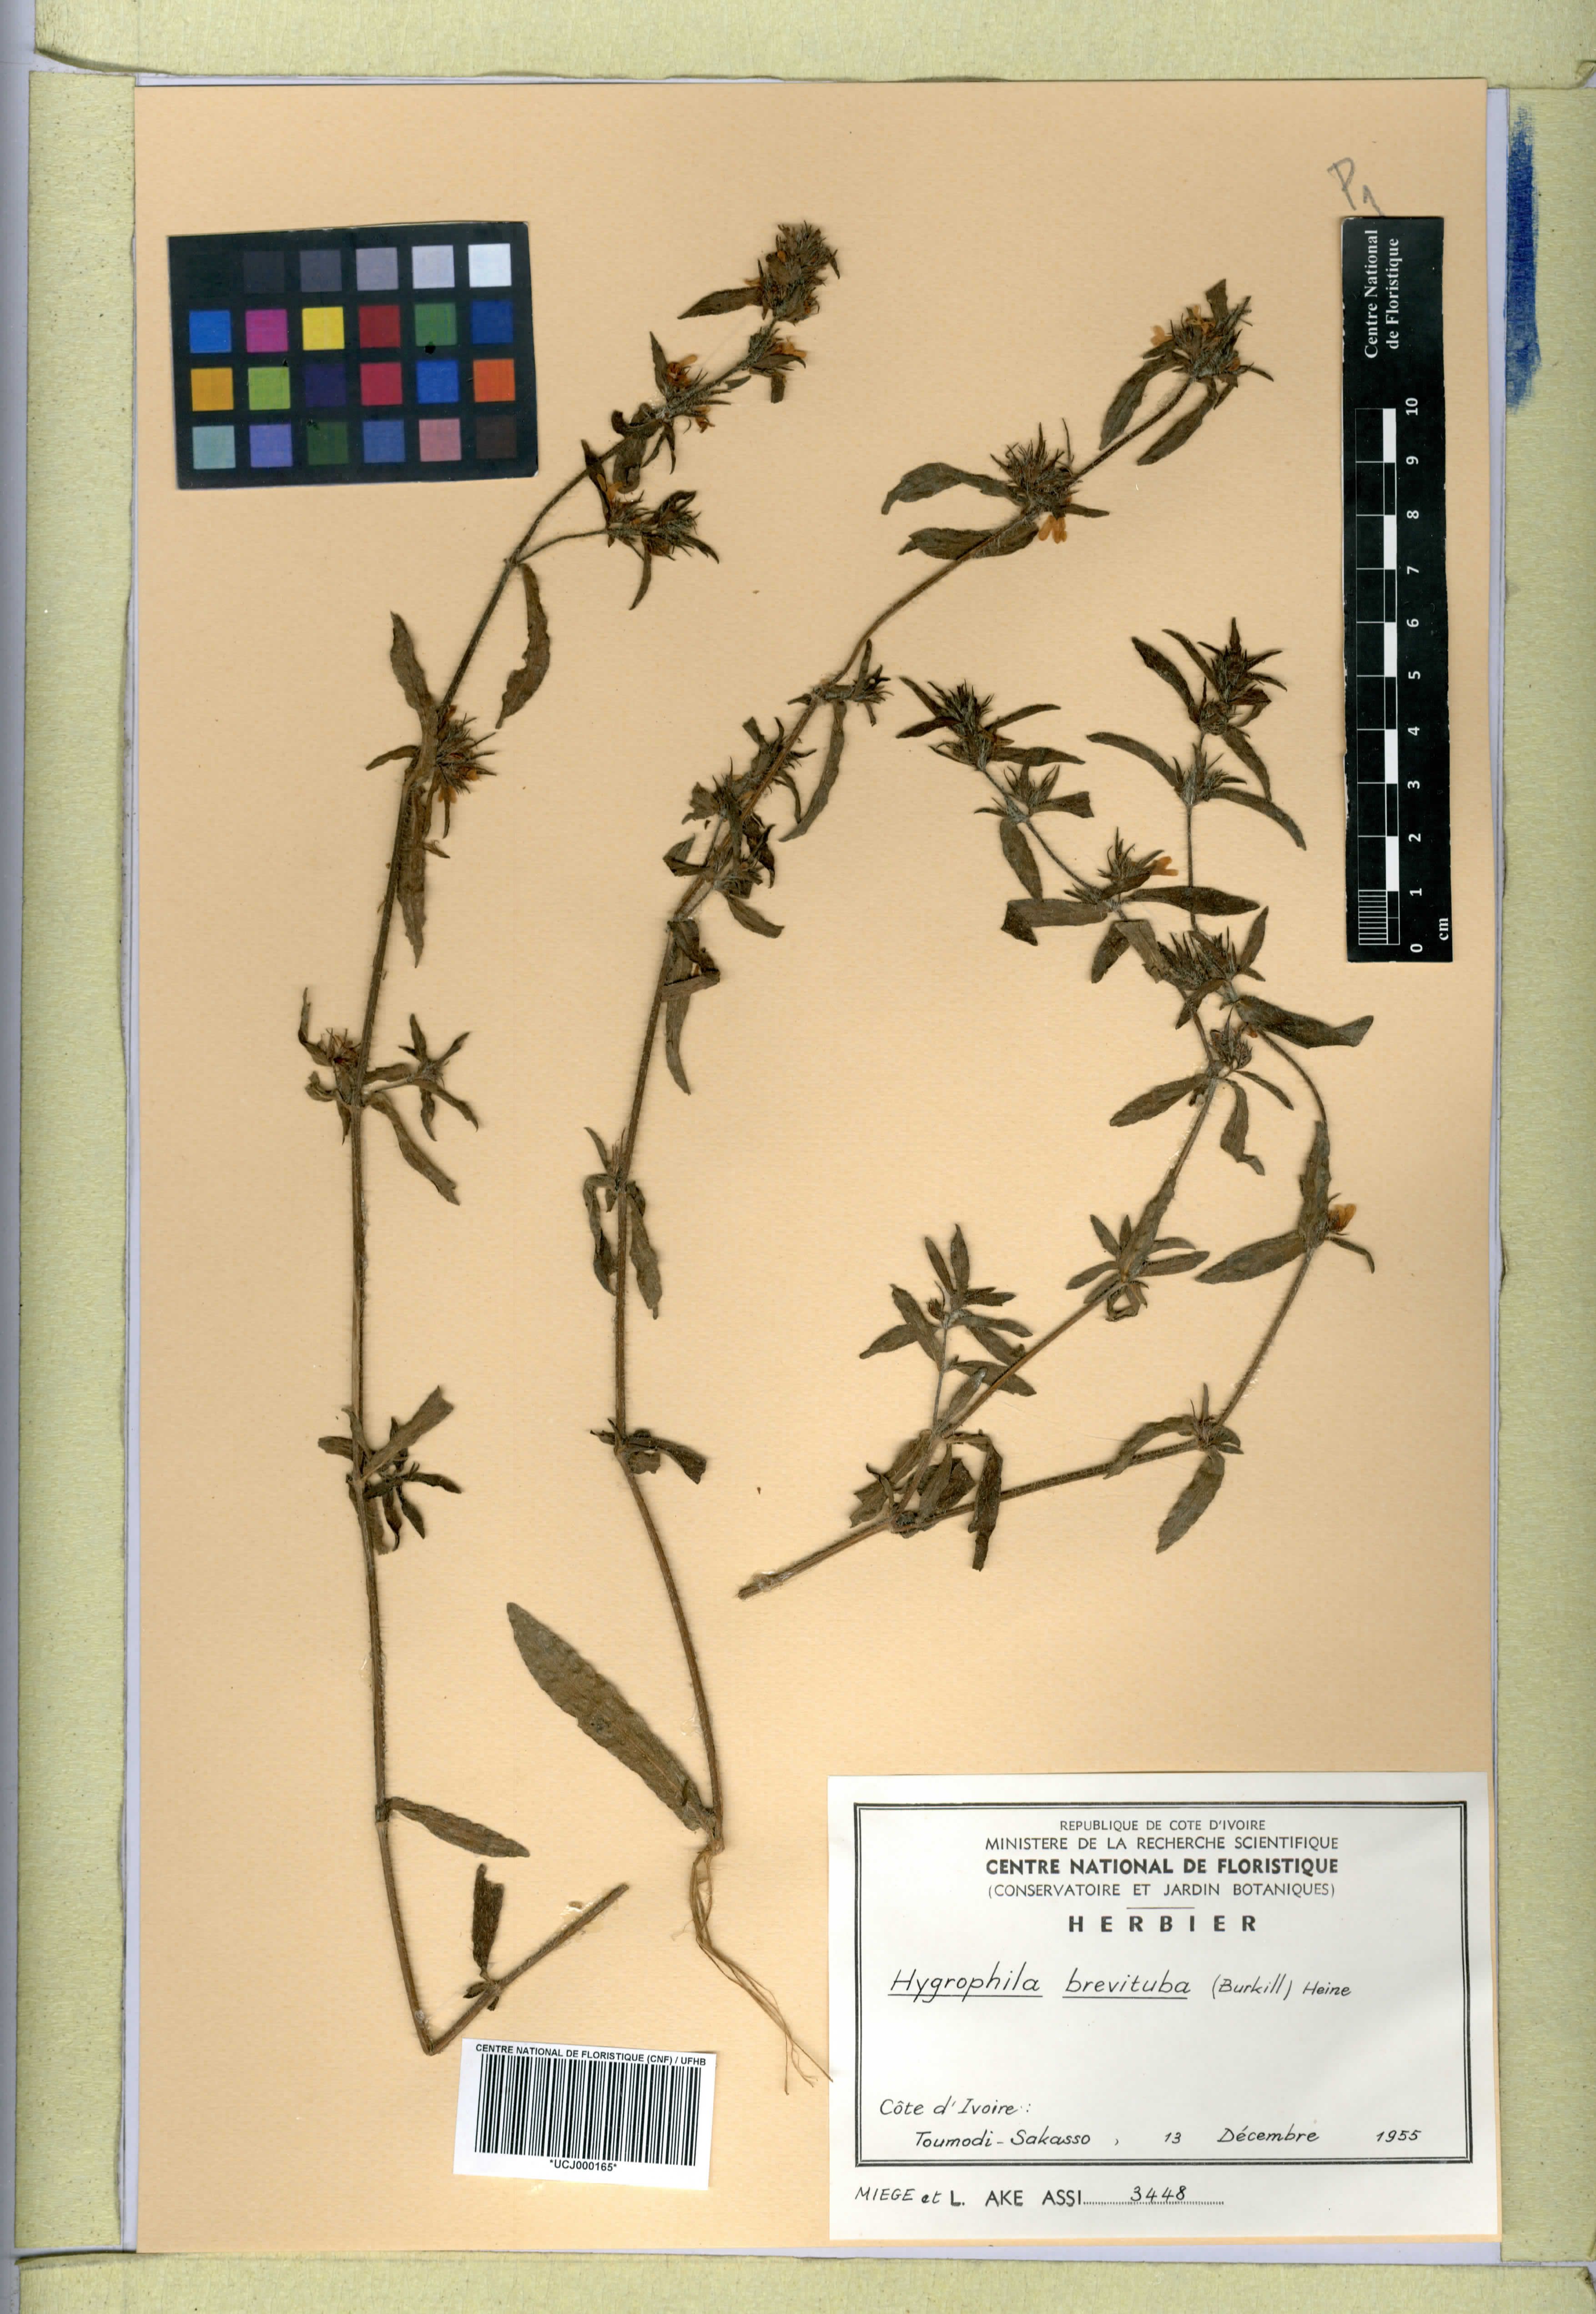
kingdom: Plantae
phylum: Tracheophyta
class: Magnoliopsida
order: Lamiales
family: Acanthaceae
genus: Hygrophila
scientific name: Hygrophila brevituba
